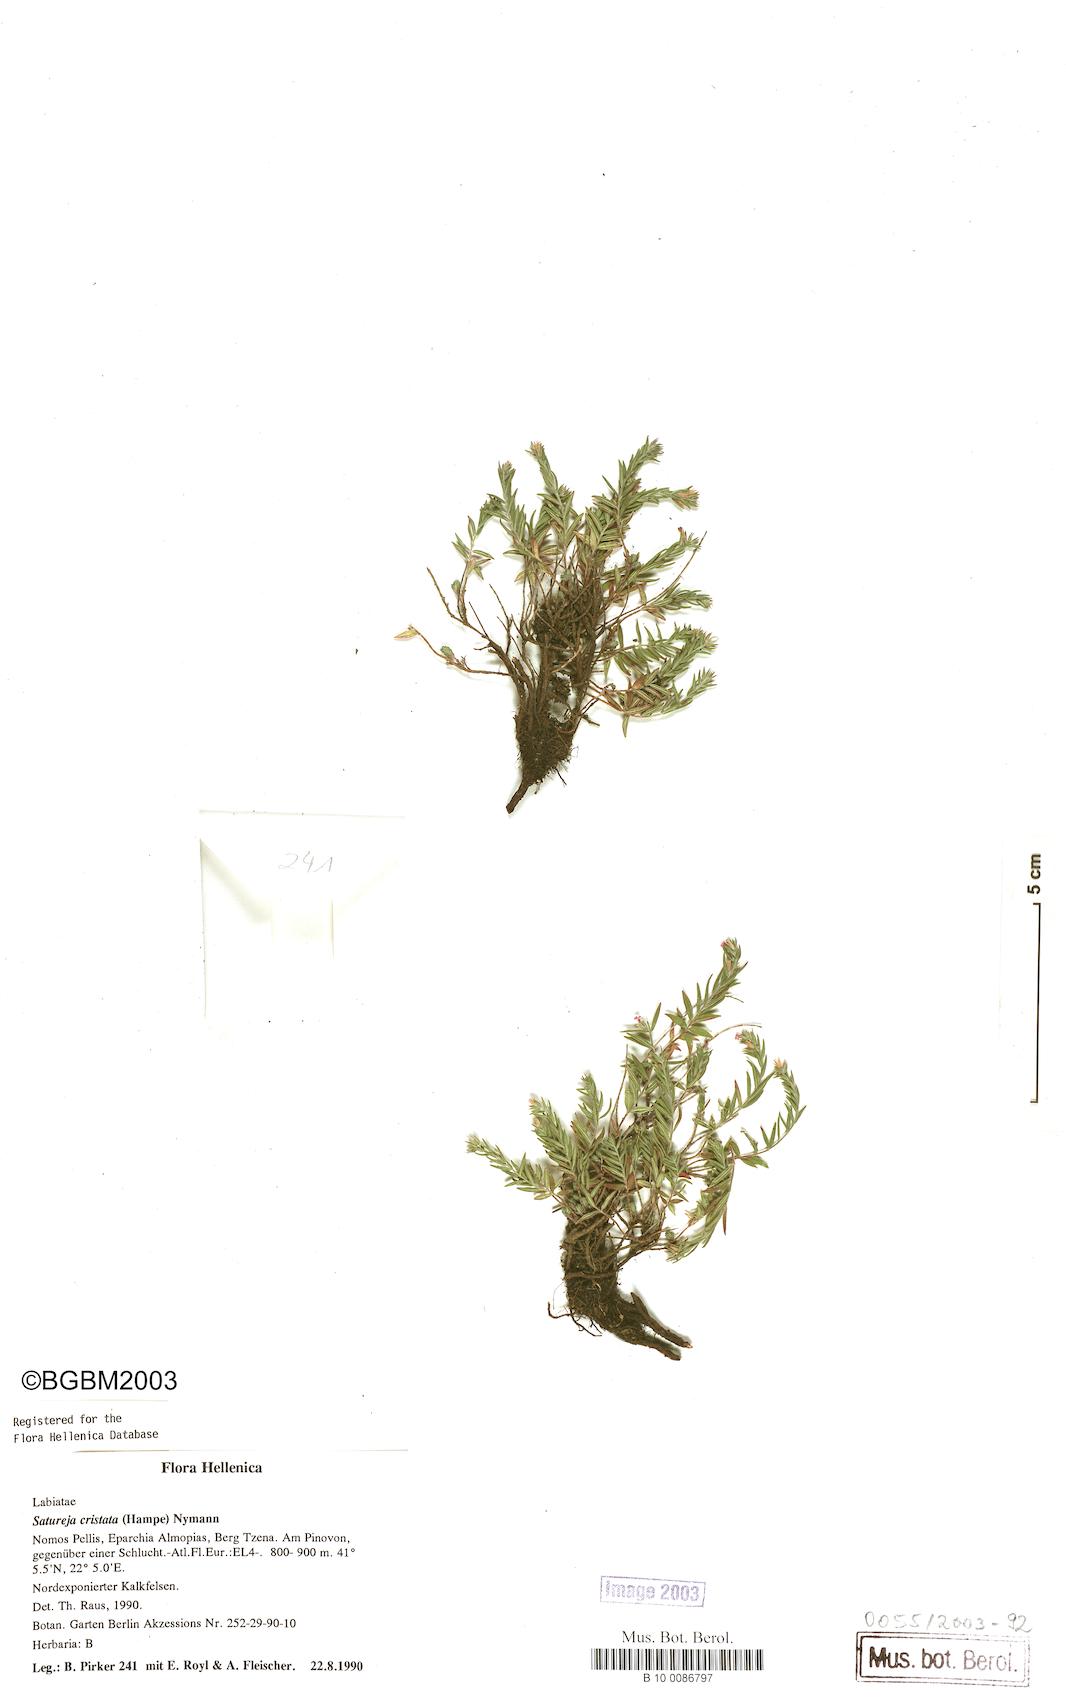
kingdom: Plantae
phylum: Tracheophyta
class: Magnoliopsida
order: Lamiales
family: Lamiaceae
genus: Micromeria
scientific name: Micromeria cristata
